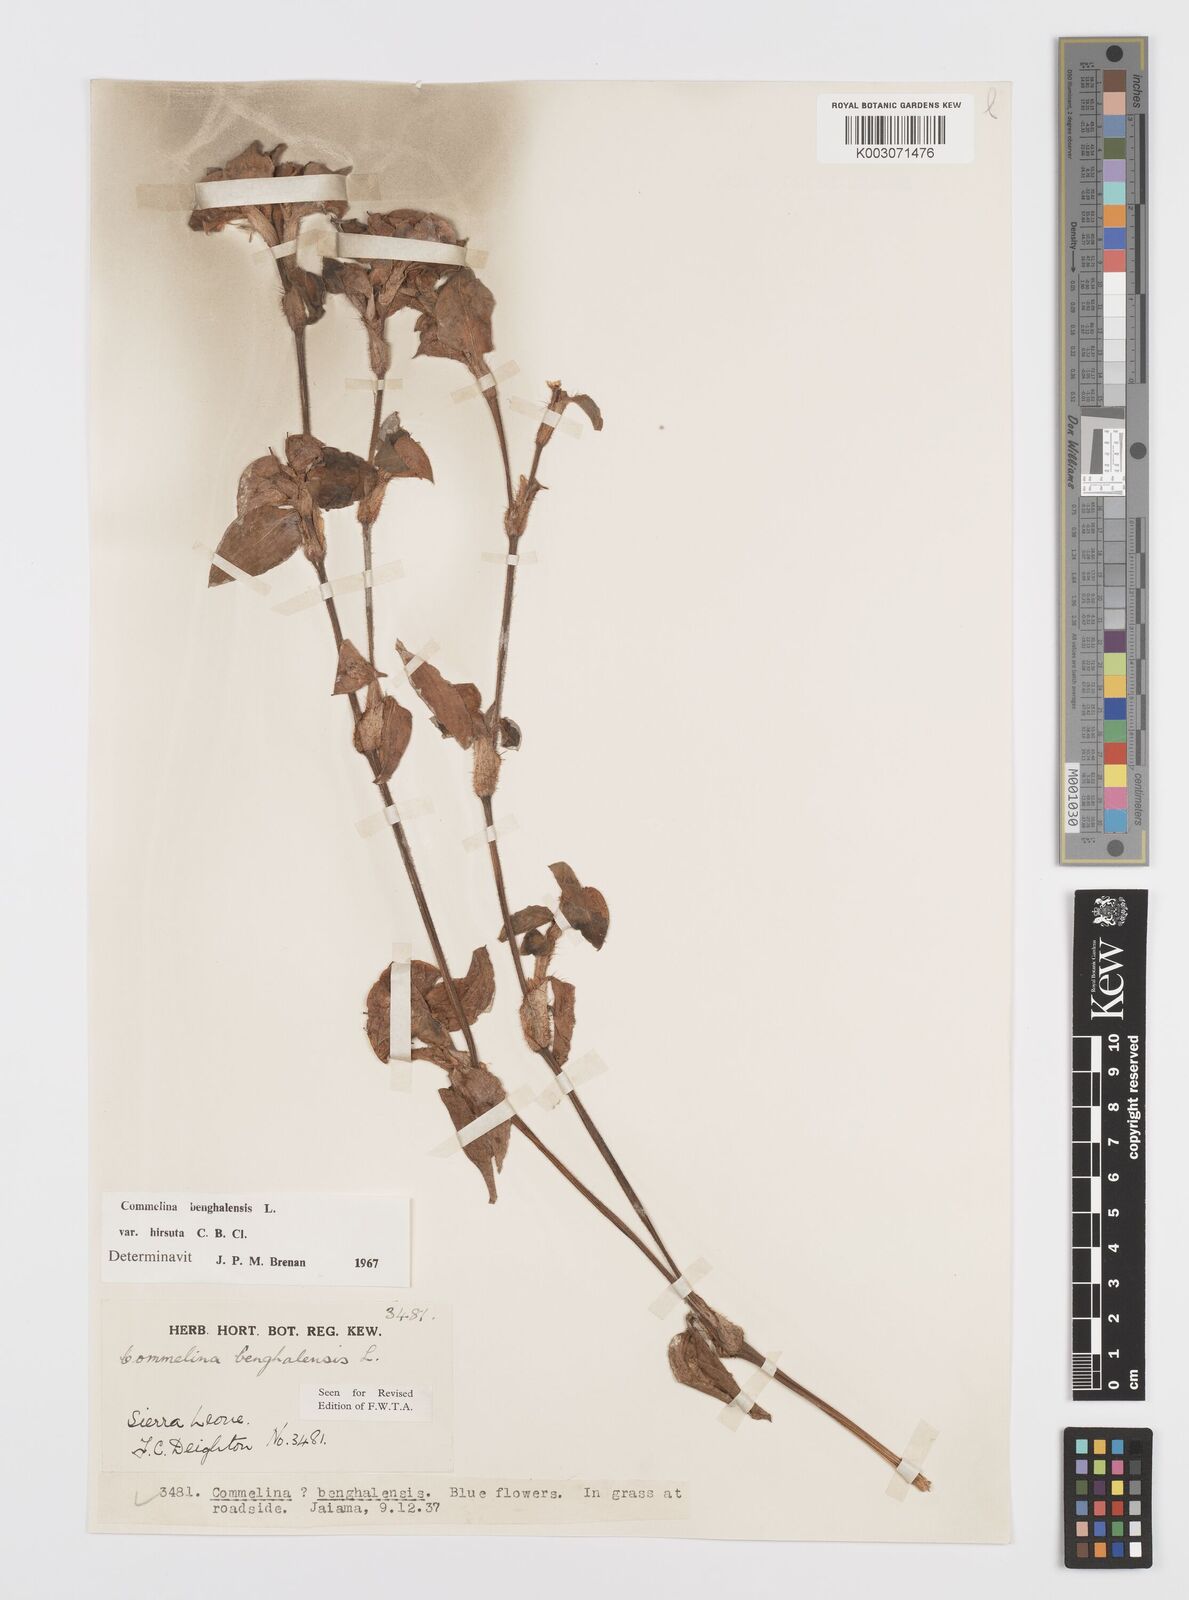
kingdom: Plantae
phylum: Tracheophyta
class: Liliopsida
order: Commelinales
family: Commelinaceae
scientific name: Commelinaceae
